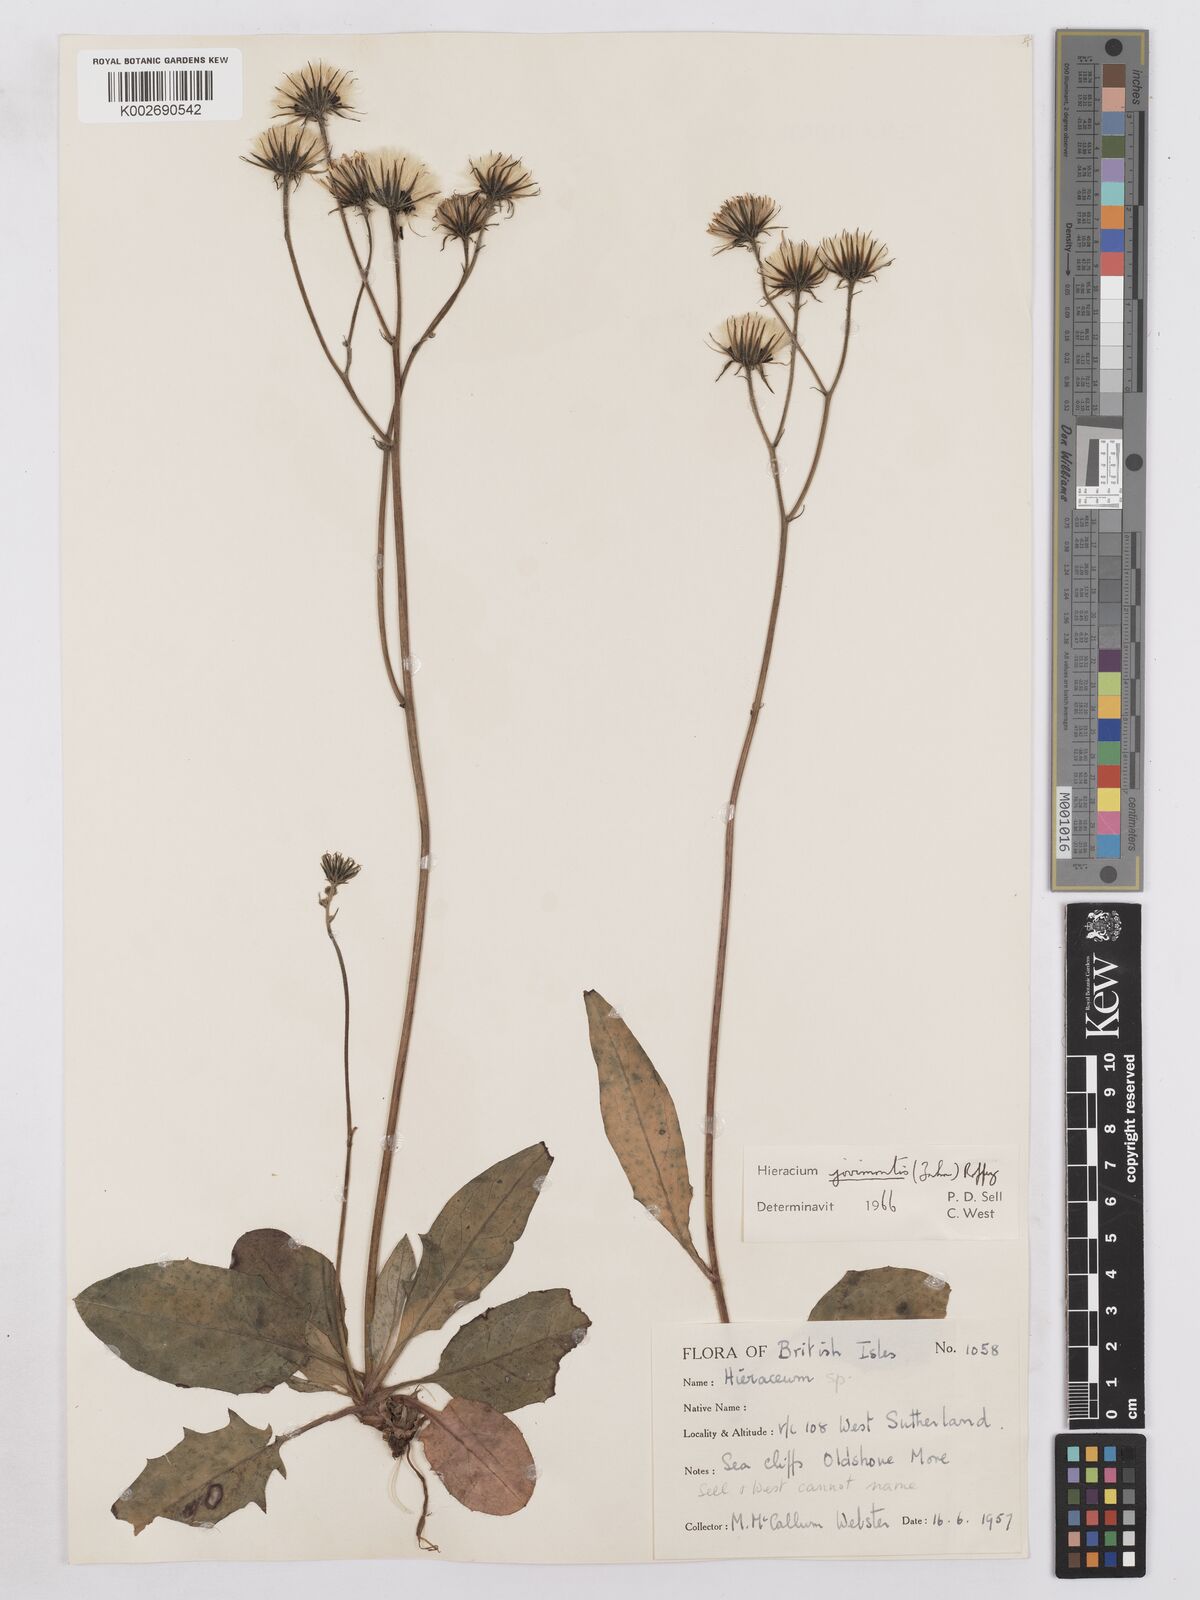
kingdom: Plantae
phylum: Tracheophyta
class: Magnoliopsida
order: Asterales
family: Asteraceae
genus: Hieracium
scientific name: Hieracium schmidtii
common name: Schmidt's hawkweed
